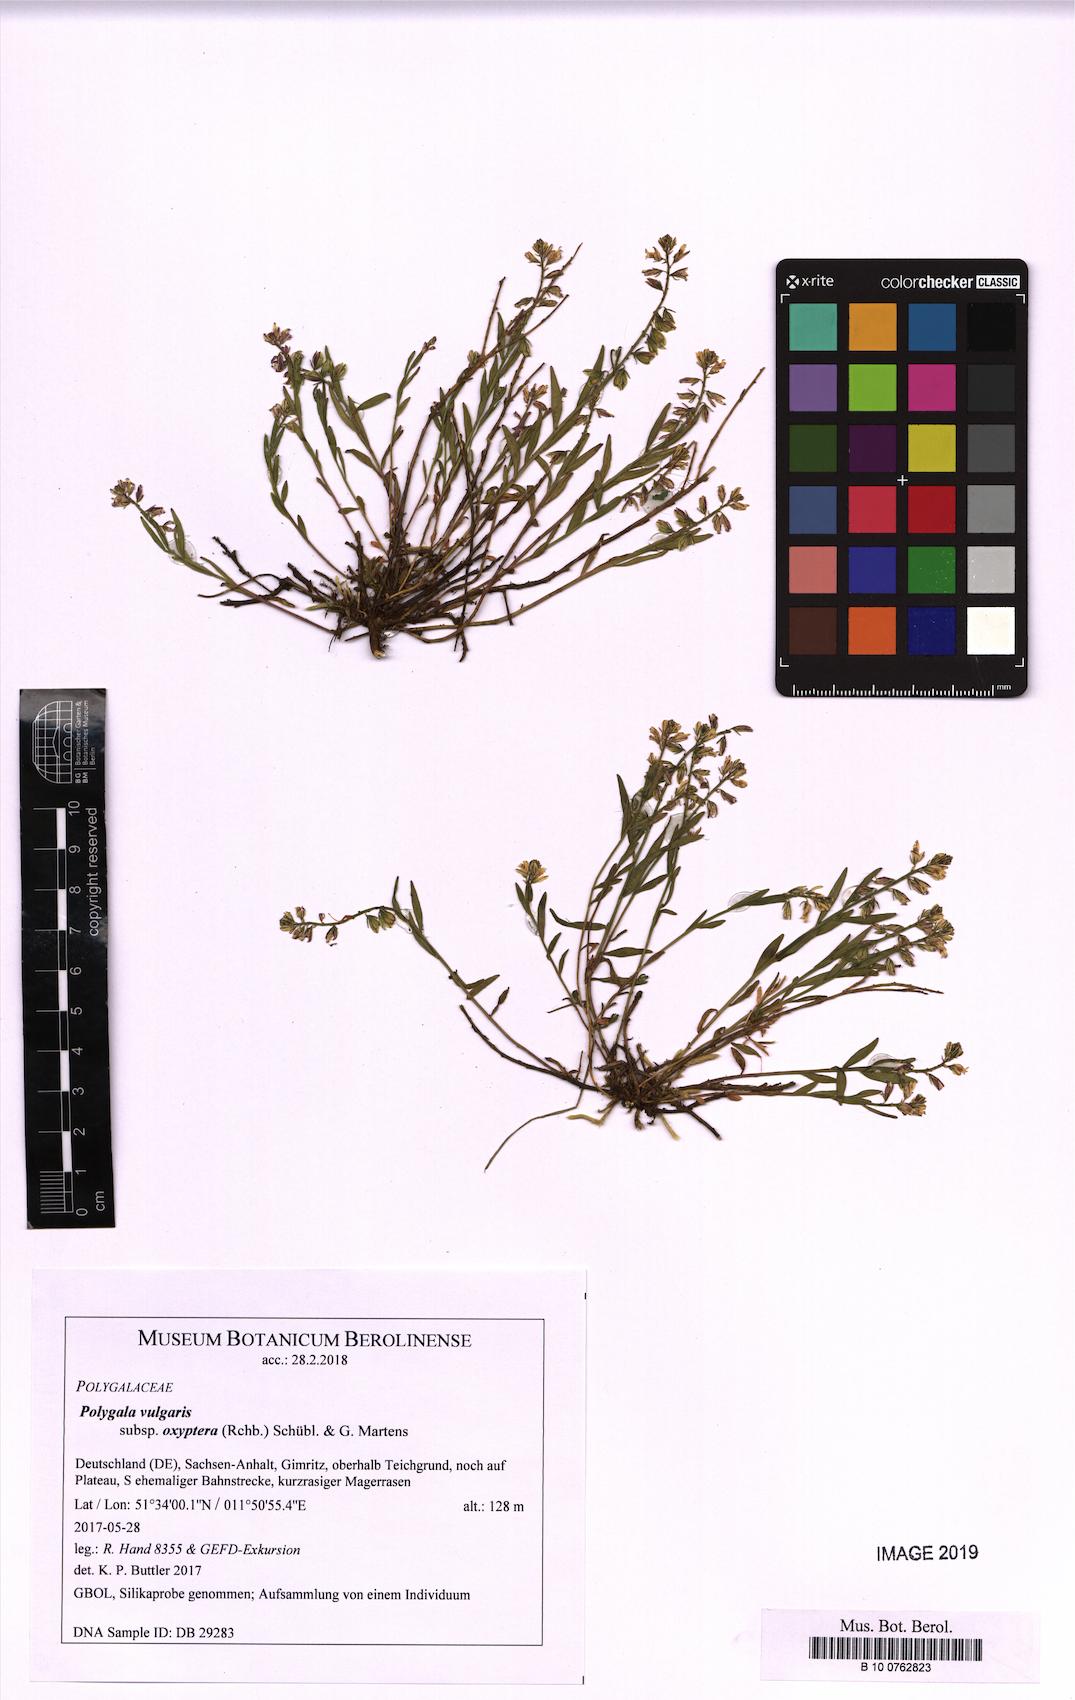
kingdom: Plantae
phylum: Tracheophyta
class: Magnoliopsida
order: Fabales
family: Polygalaceae
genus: Polygala
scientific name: Polygala vulgaris
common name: Common milkwort
